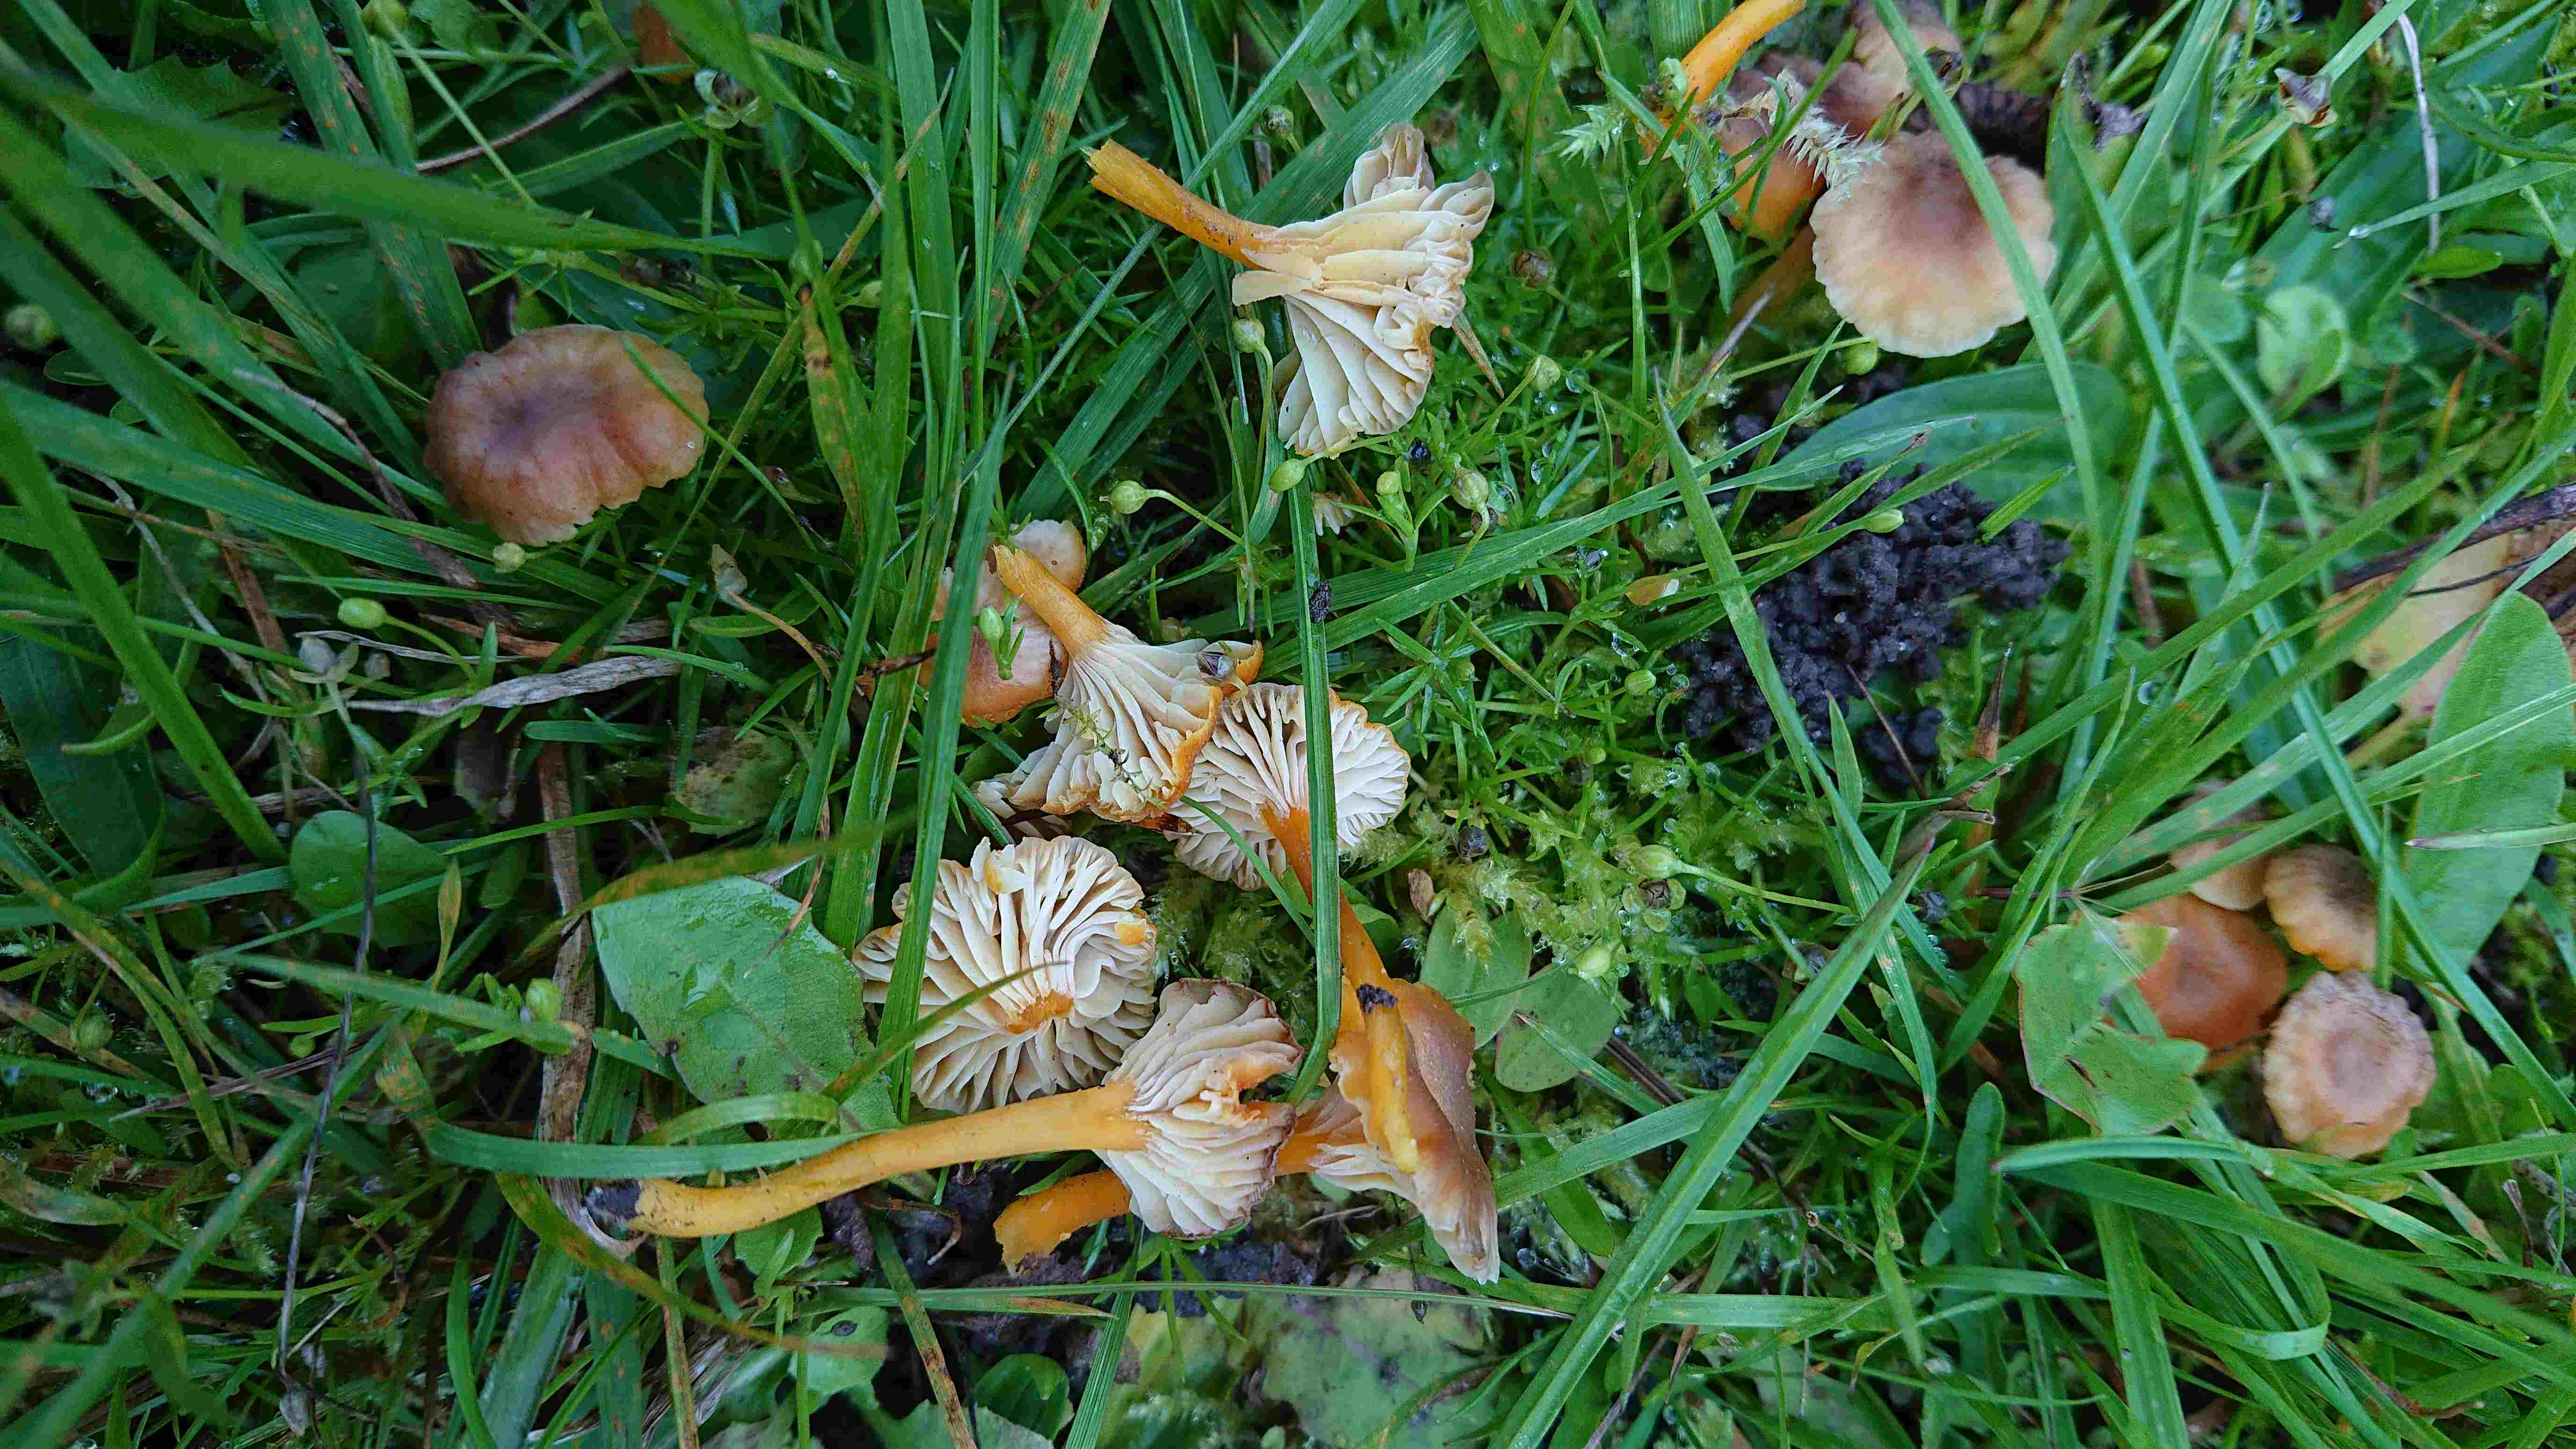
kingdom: Fungi
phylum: Basidiomycota
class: Agaricomycetes
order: Agaricales
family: Hygrophoraceae
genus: Hygrocybe
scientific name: Hygrocybe cantharellus
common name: kantarel-vokshat
